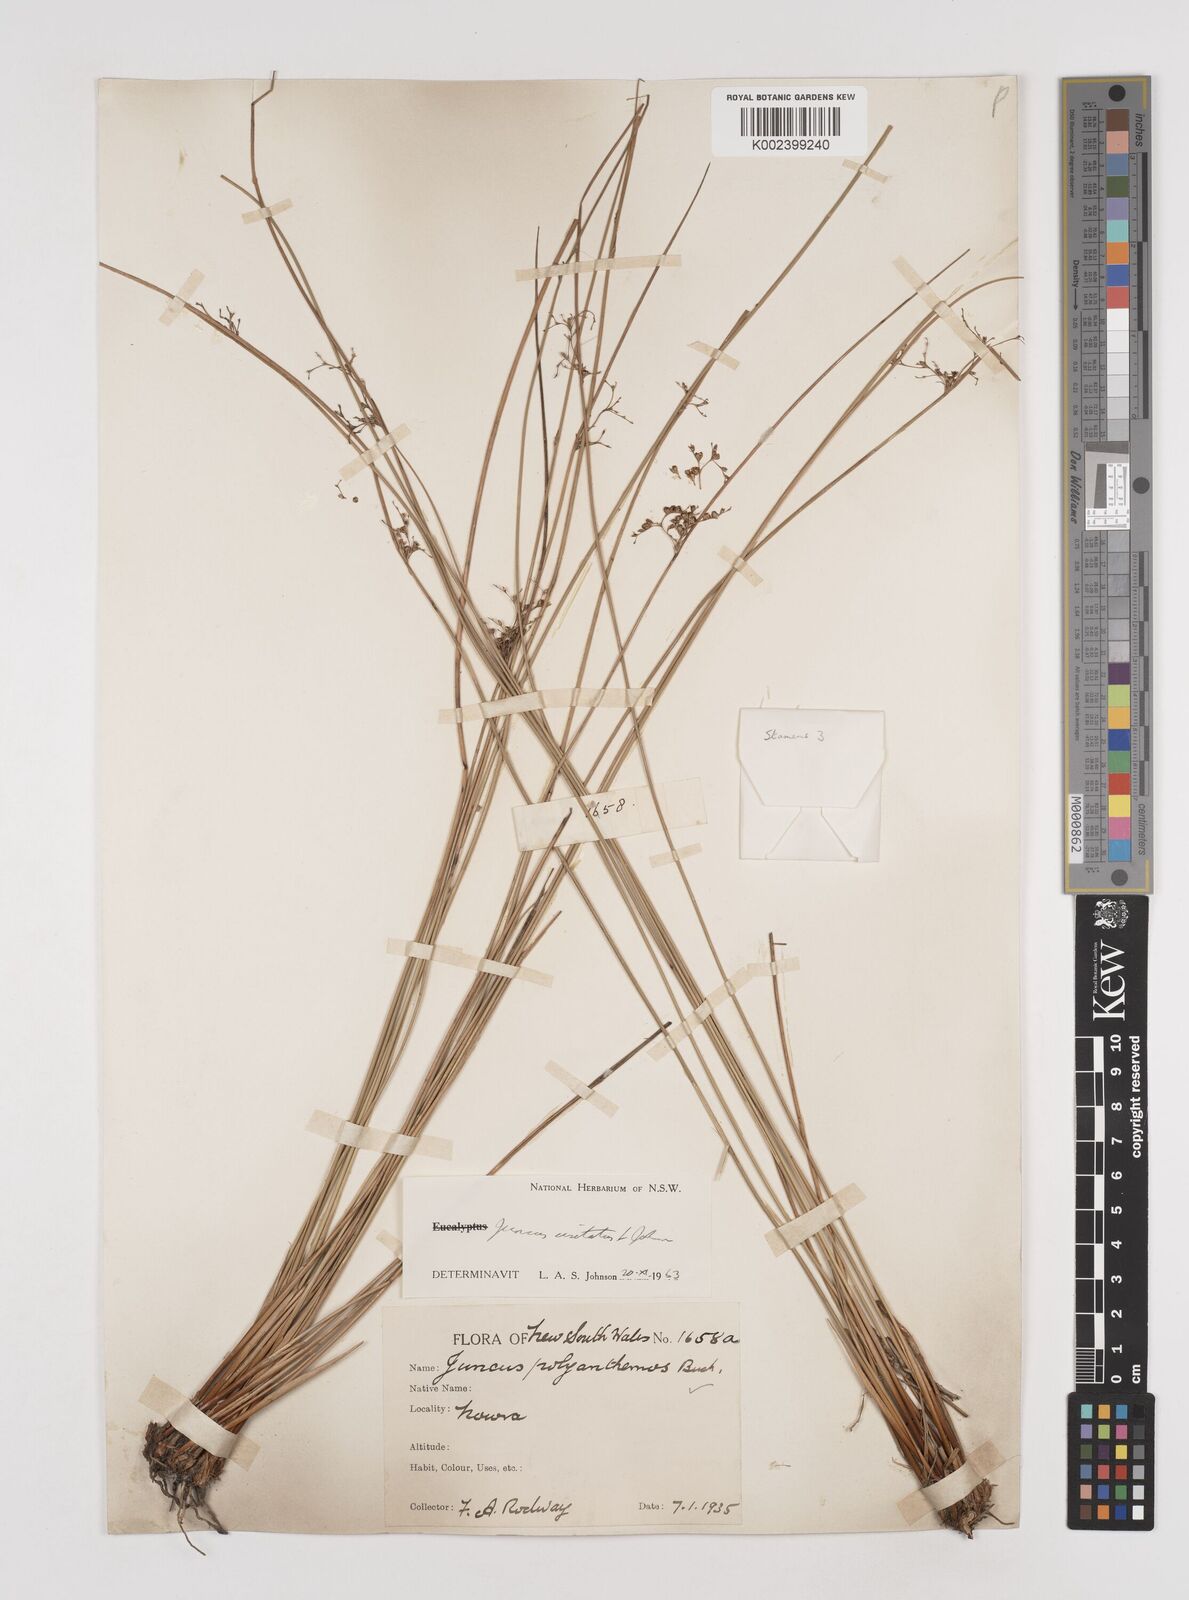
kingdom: Plantae
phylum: Tracheophyta
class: Liliopsida
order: Poales
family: Juncaceae
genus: Juncus
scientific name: Juncus usitatus
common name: Rush
